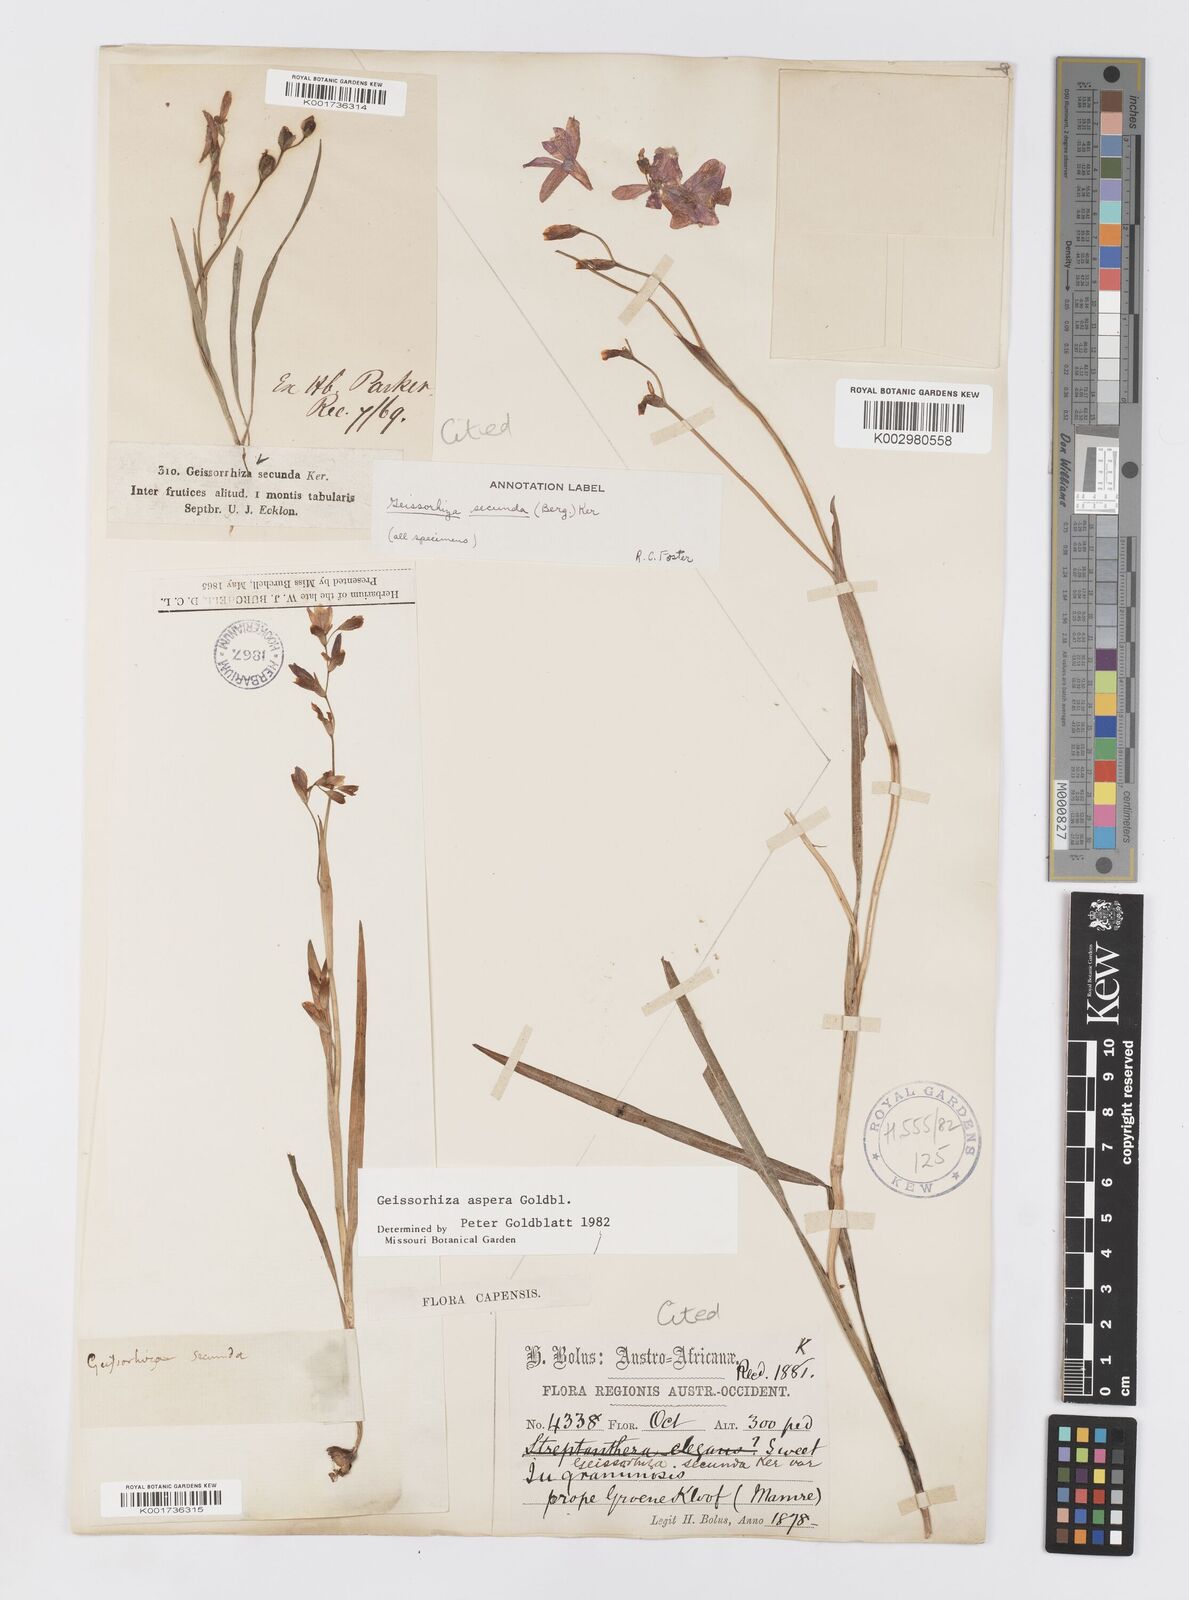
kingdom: Plantae
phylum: Tracheophyta
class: Liliopsida
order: Asparagales
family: Iridaceae
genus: Geissorhiza
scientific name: Geissorhiza aspera
